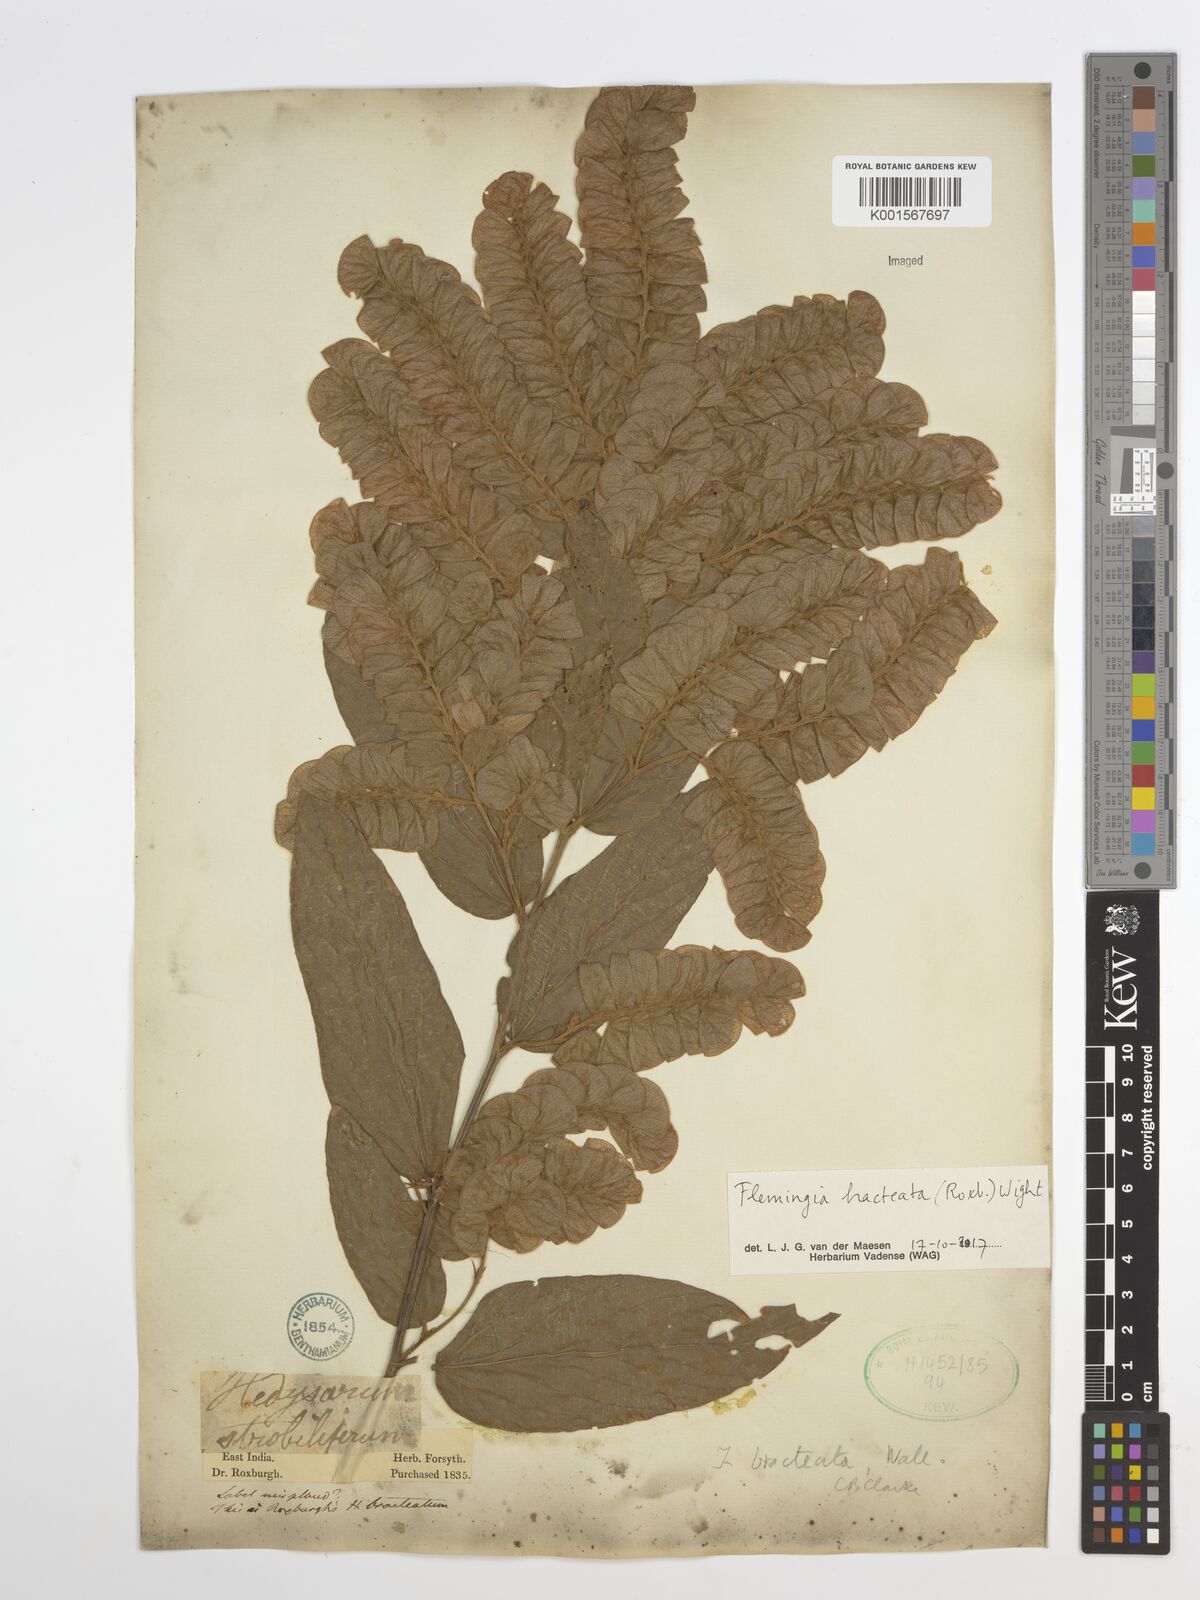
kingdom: Plantae
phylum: Tracheophyta
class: Magnoliopsida
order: Fabales
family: Fabaceae
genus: Flemingia
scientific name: Flemingia bracteata
